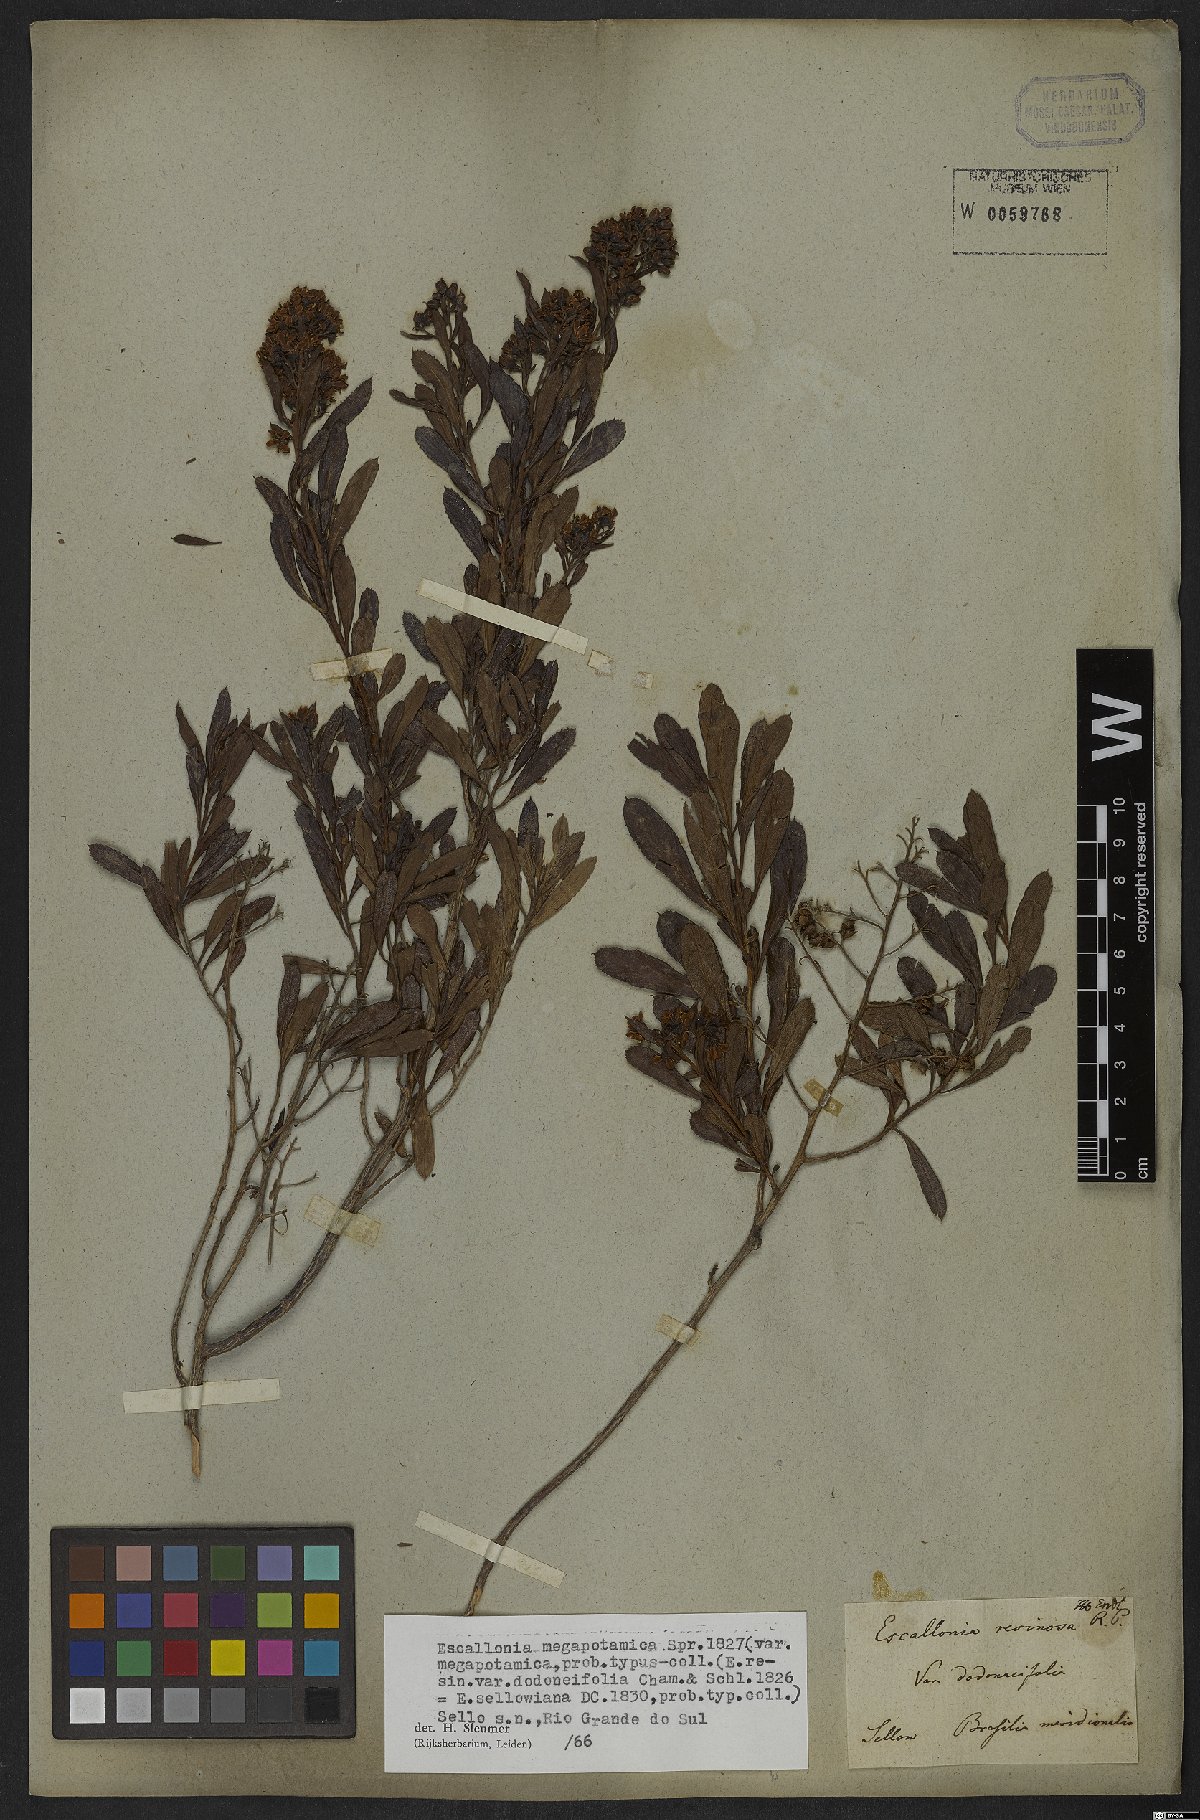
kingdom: Plantae
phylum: Tracheophyta
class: Magnoliopsida
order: Escalloniales
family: Escalloniaceae
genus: Escallonia
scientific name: Escallonia megapotamica
